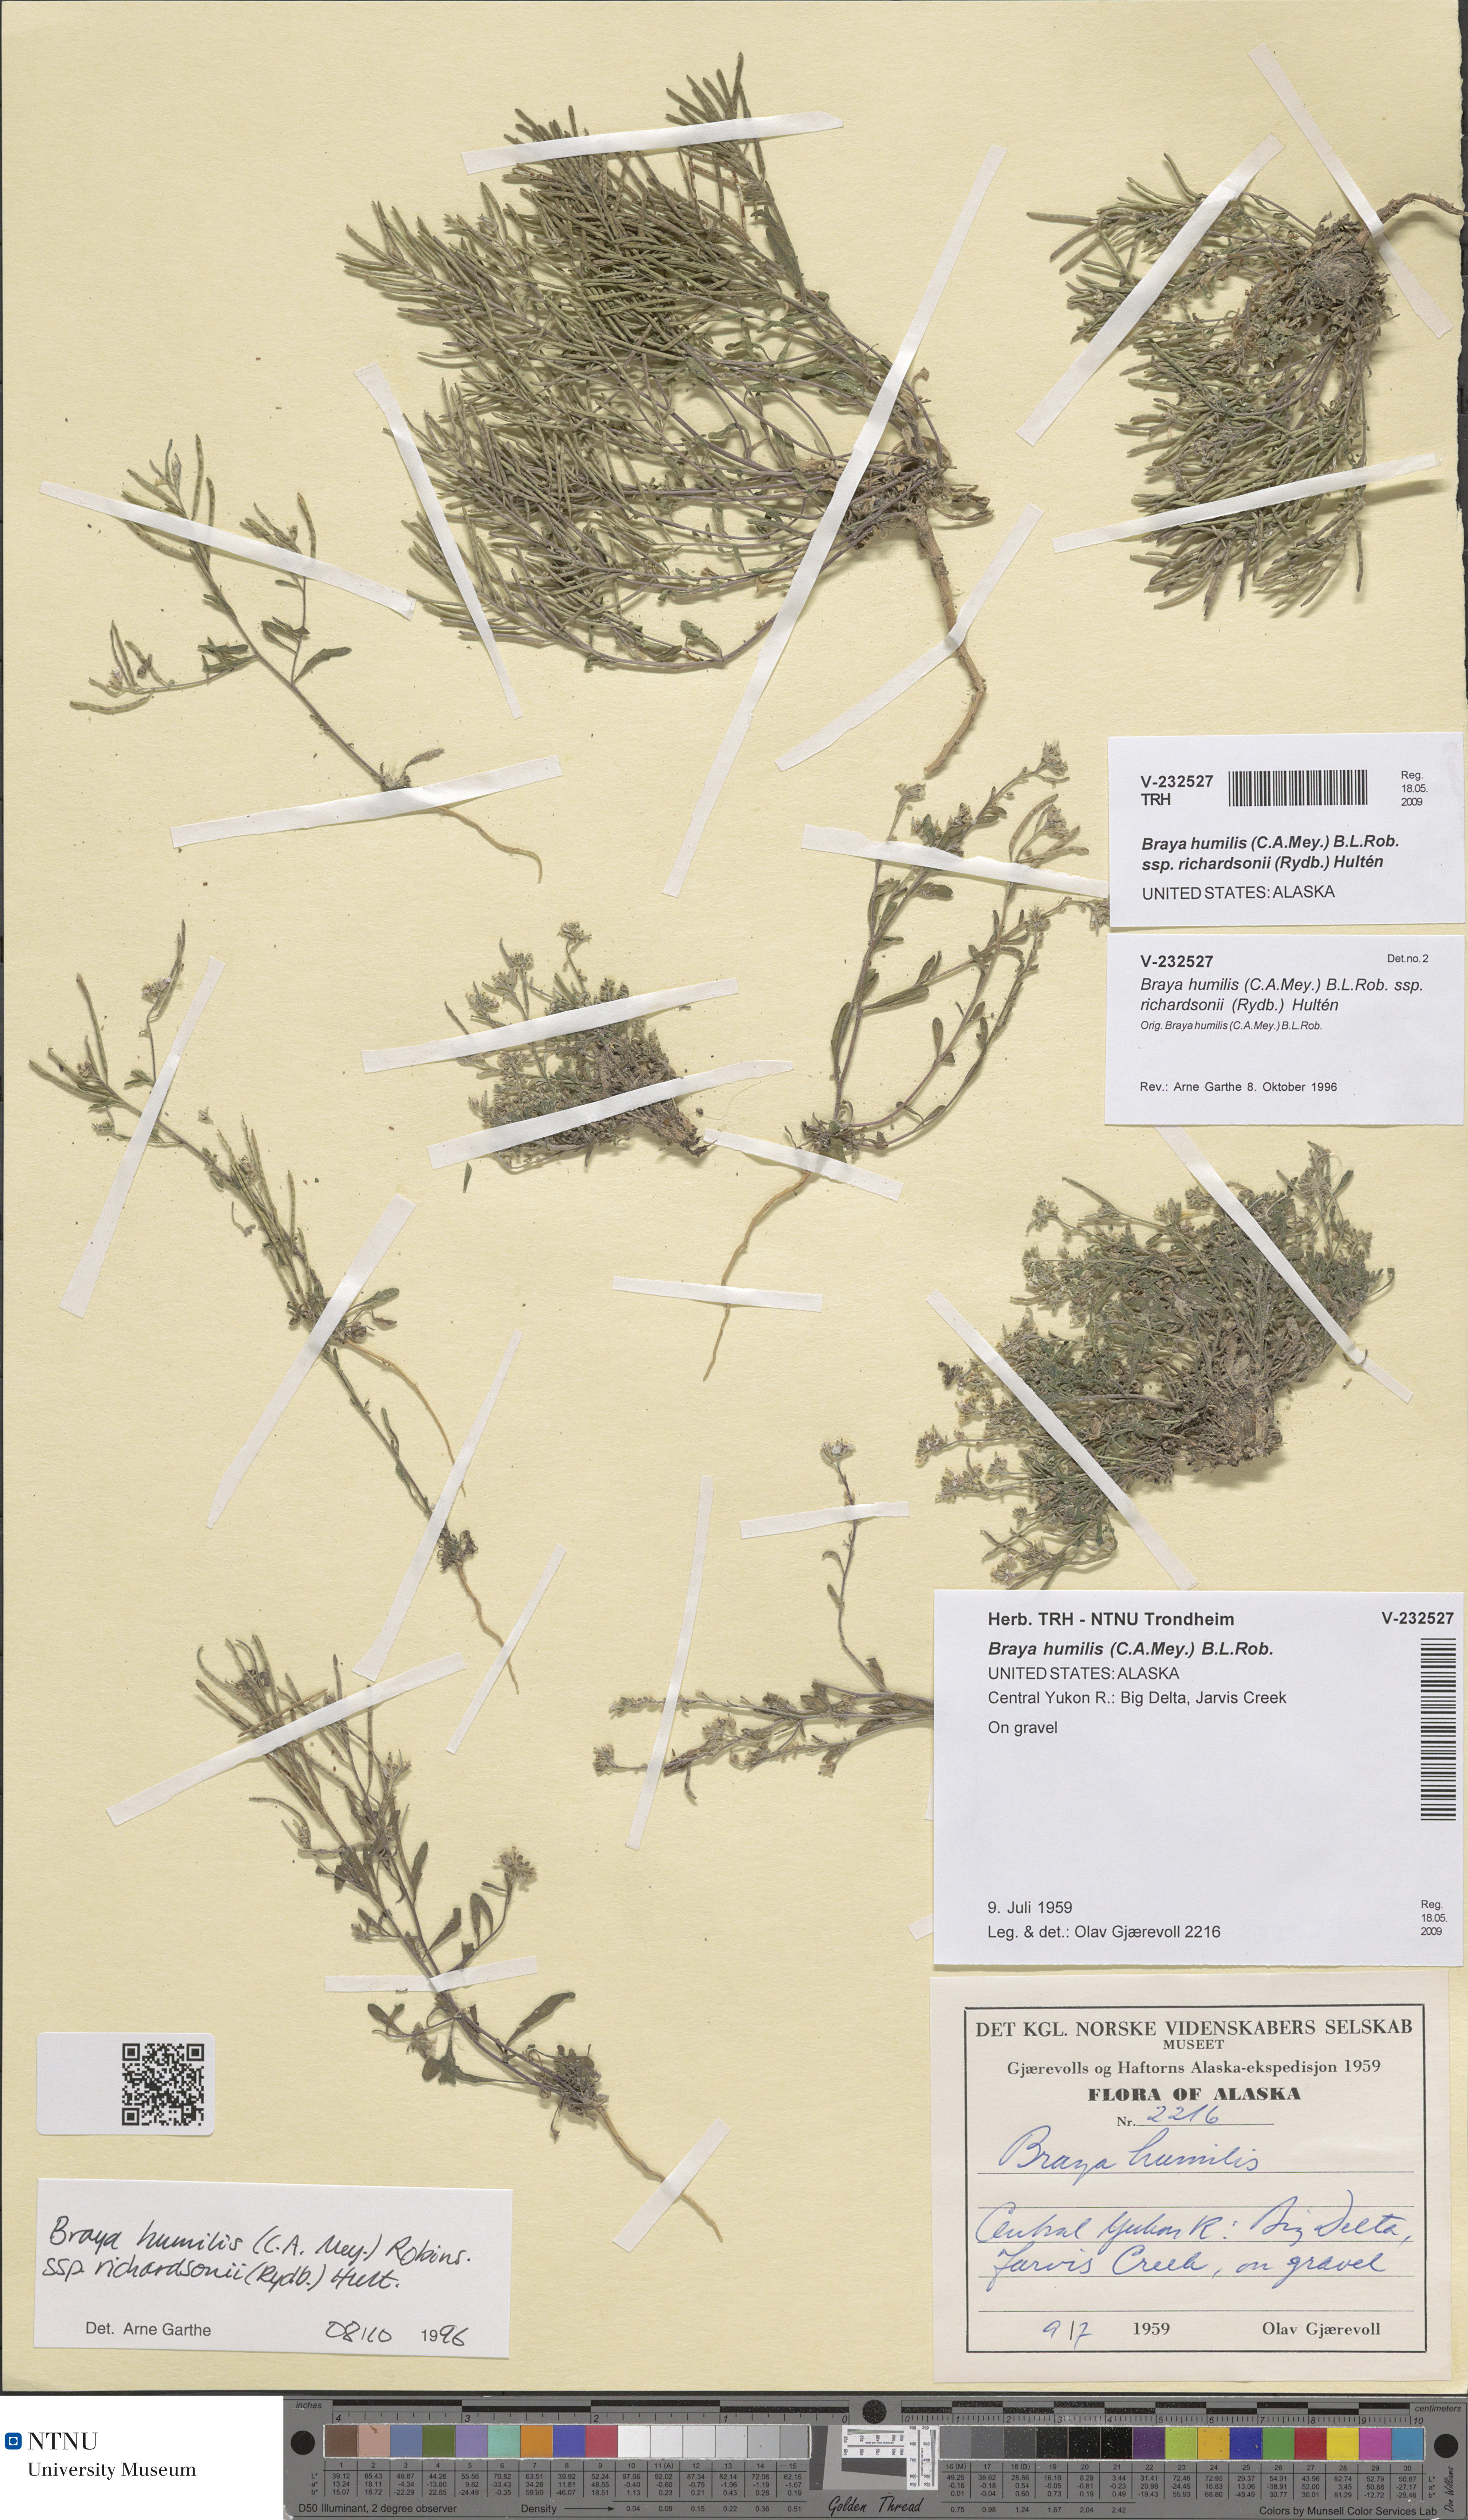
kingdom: Plantae
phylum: Tracheophyta
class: Magnoliopsida
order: Brassicales
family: Brassicaceae
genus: Braya
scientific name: Braya humilis
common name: Alpine northern rockcress
